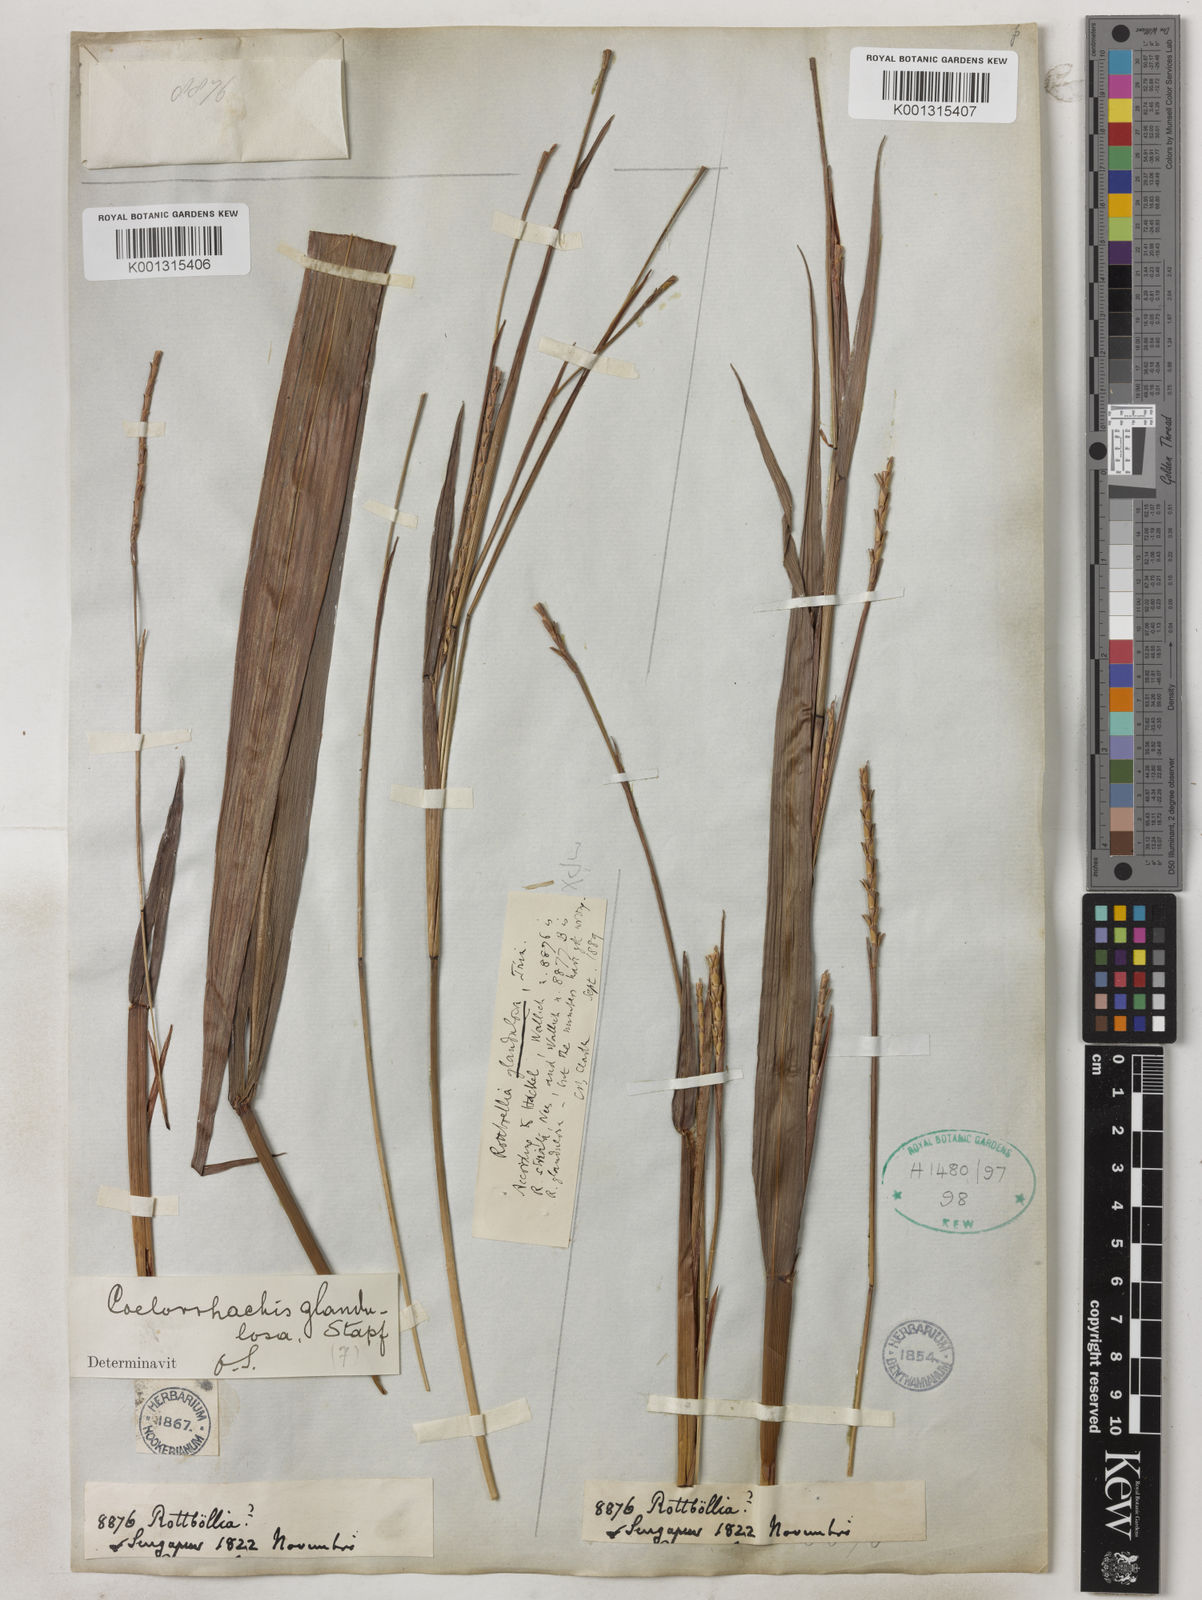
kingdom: Plantae
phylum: Tracheophyta
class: Liliopsida
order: Poales
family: Poaceae
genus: Rottboellia
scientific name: Rottboellia glandulosa
